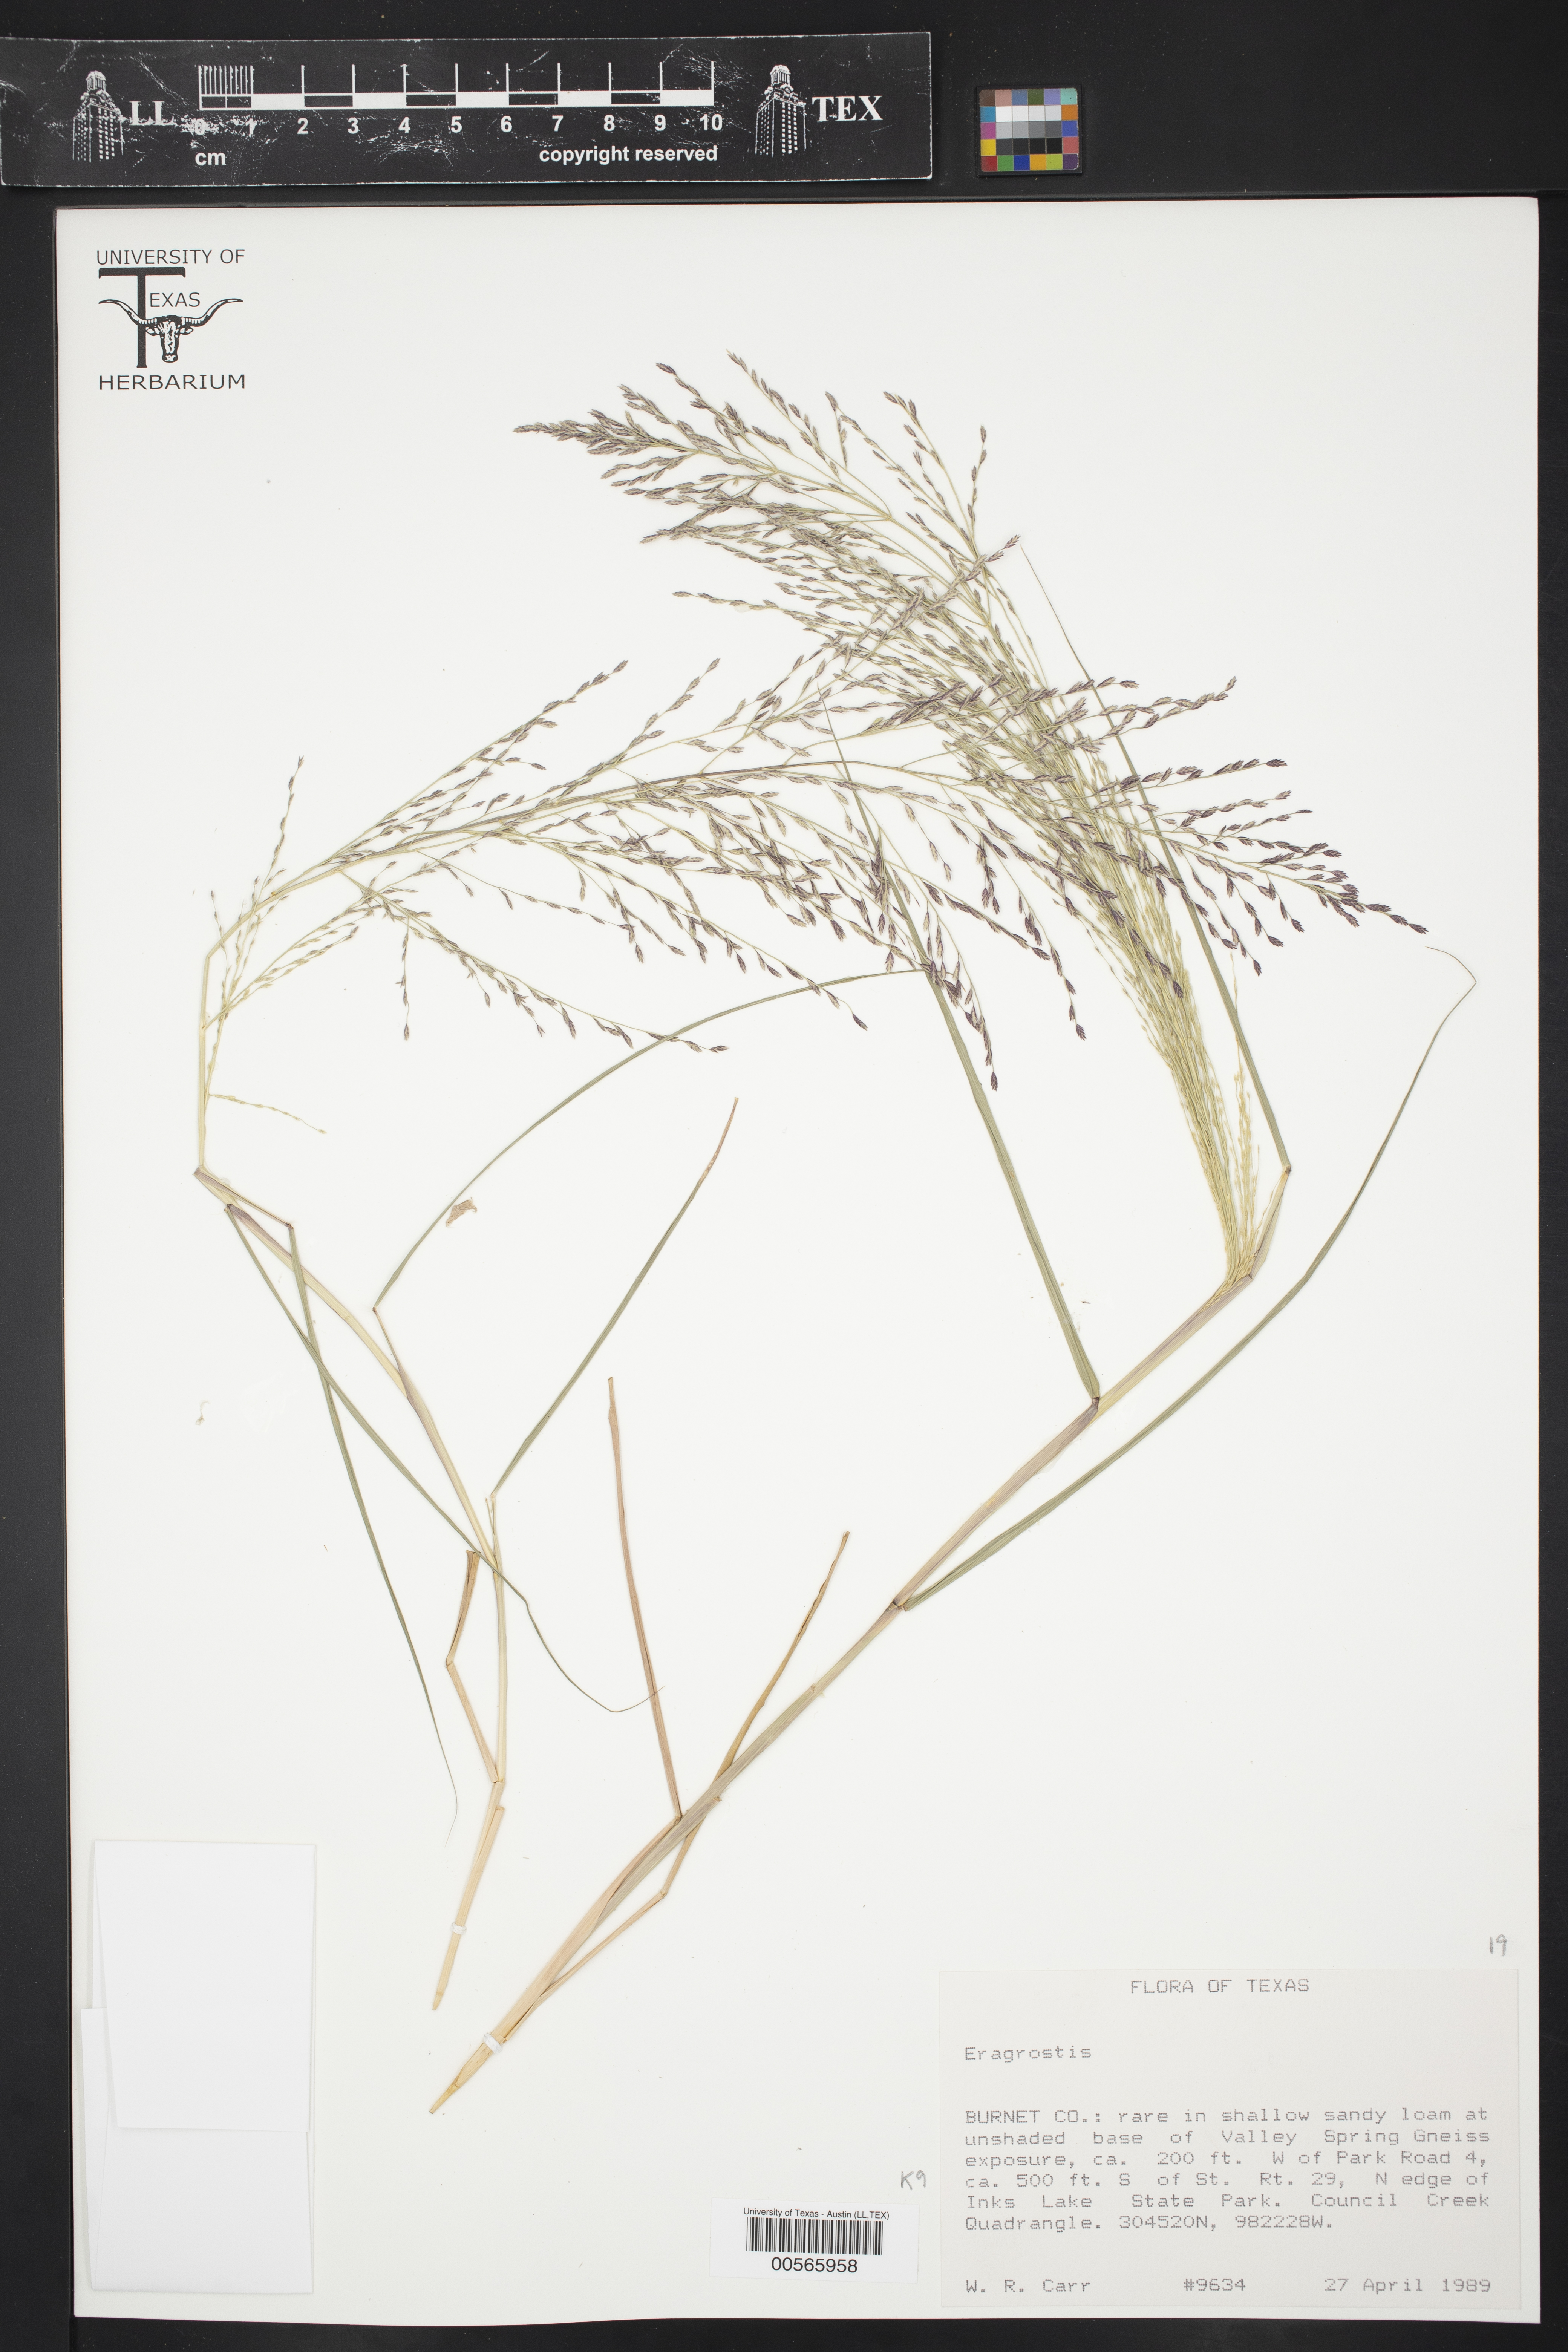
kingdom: Plantae
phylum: Tracheophyta
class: Liliopsida
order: Poales
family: Poaceae
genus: Eragrostis
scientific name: Eragrostis
